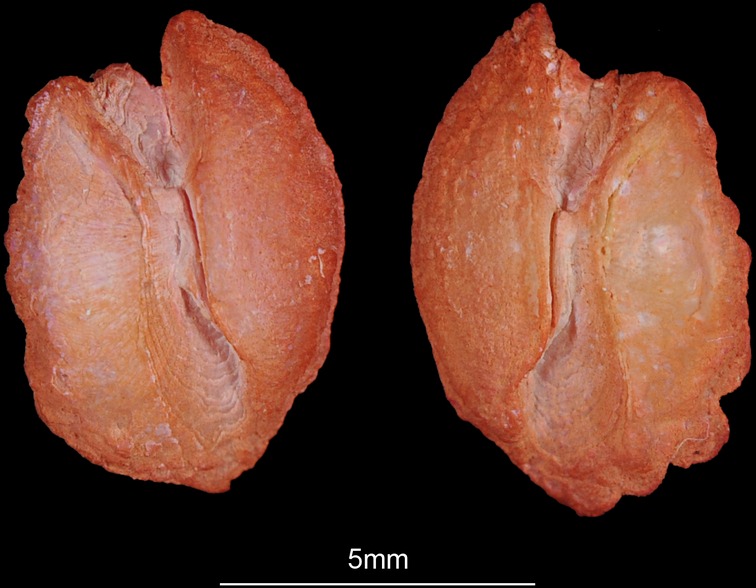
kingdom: Animalia
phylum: Chordata
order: Perciformes
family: Malacanthidae
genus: Branchiostegus
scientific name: Branchiostegus doliatus
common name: Ribbed tilefish
